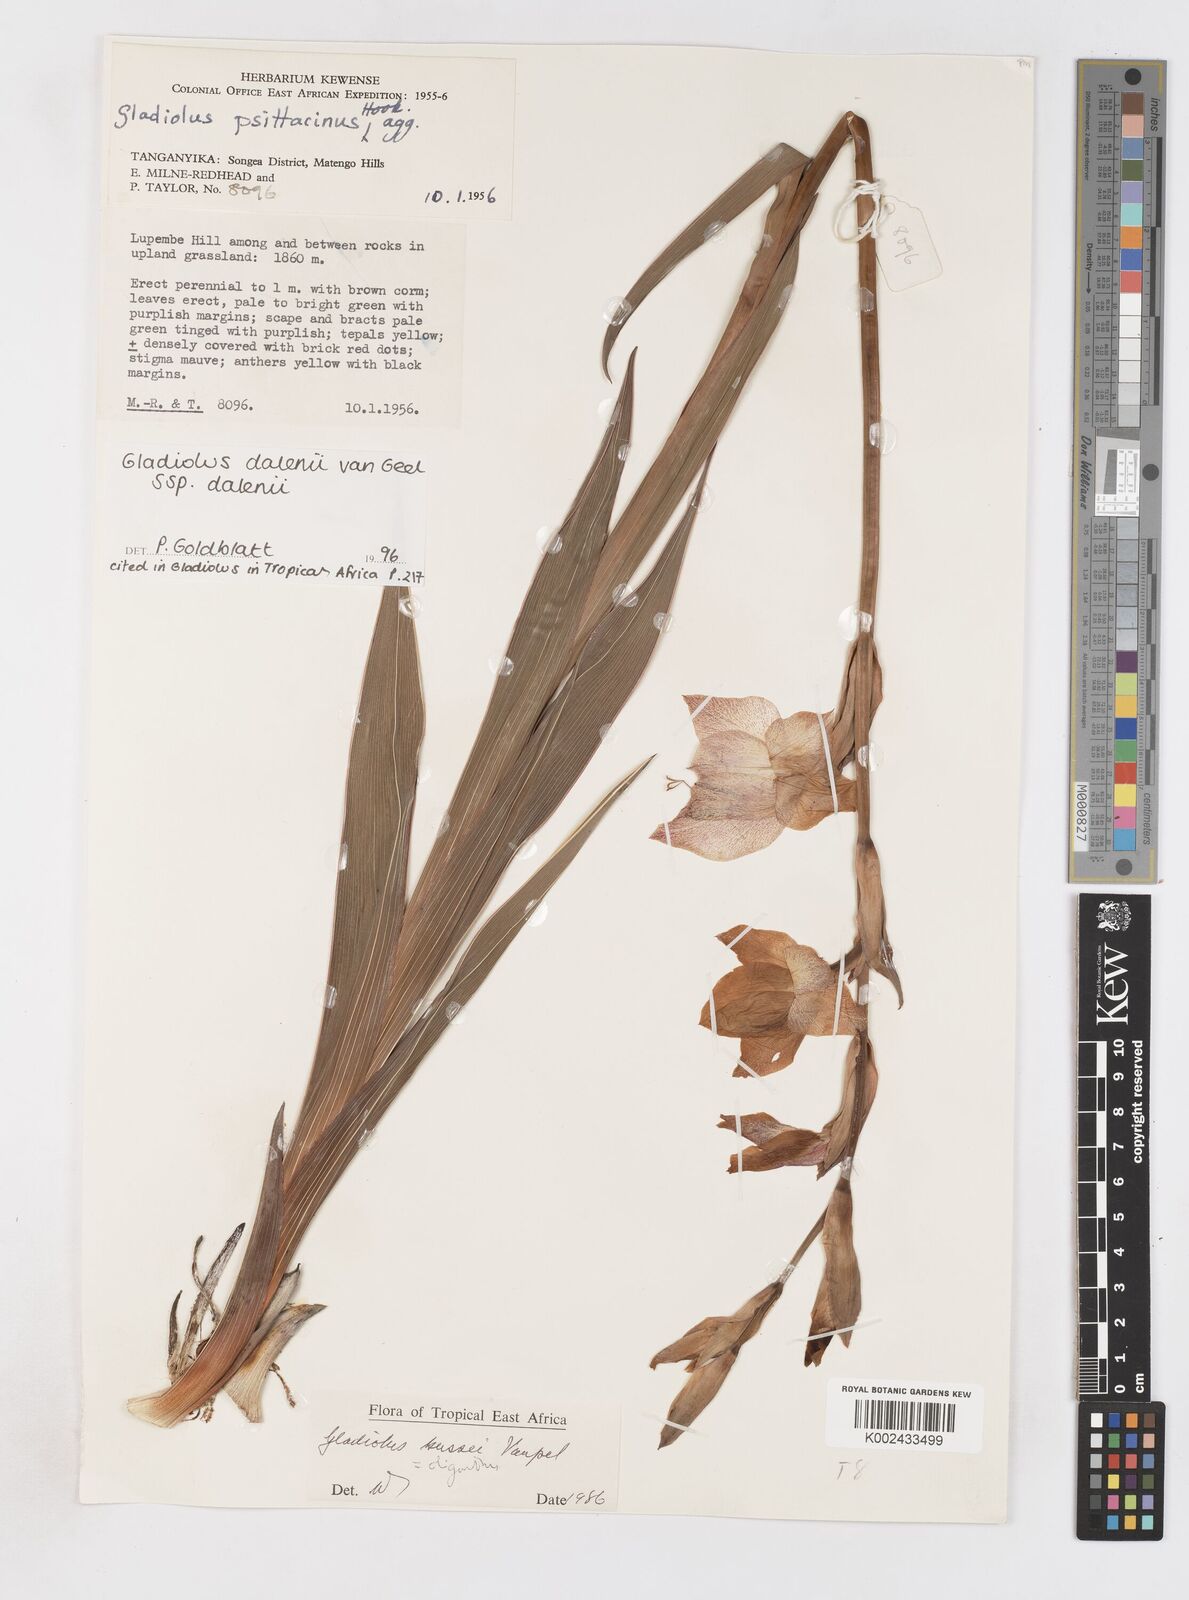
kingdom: Plantae
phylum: Tracheophyta
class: Liliopsida
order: Asparagales
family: Iridaceae
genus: Gladiolus
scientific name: Gladiolus dalenii
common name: Cornflag
